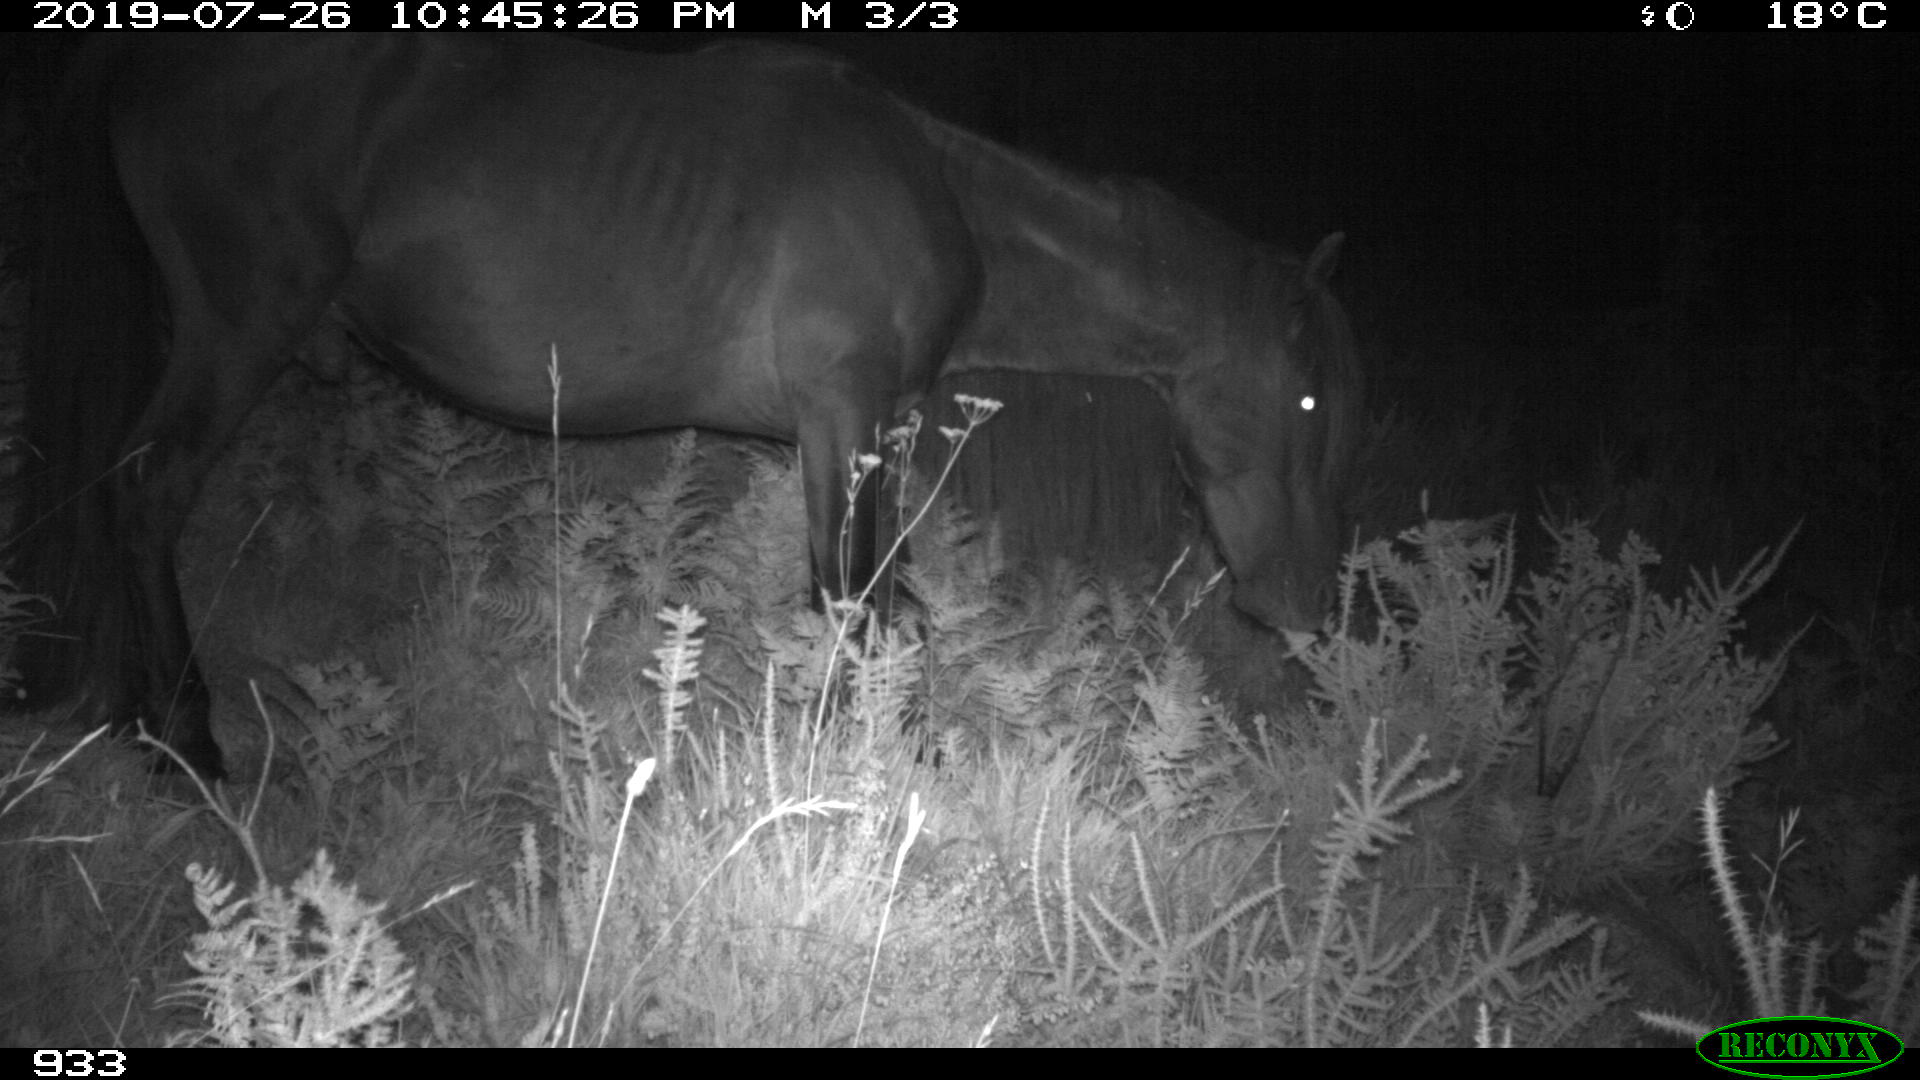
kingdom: Animalia
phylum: Chordata
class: Mammalia
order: Perissodactyla
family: Equidae
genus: Equus
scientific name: Equus caballus
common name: Horse
